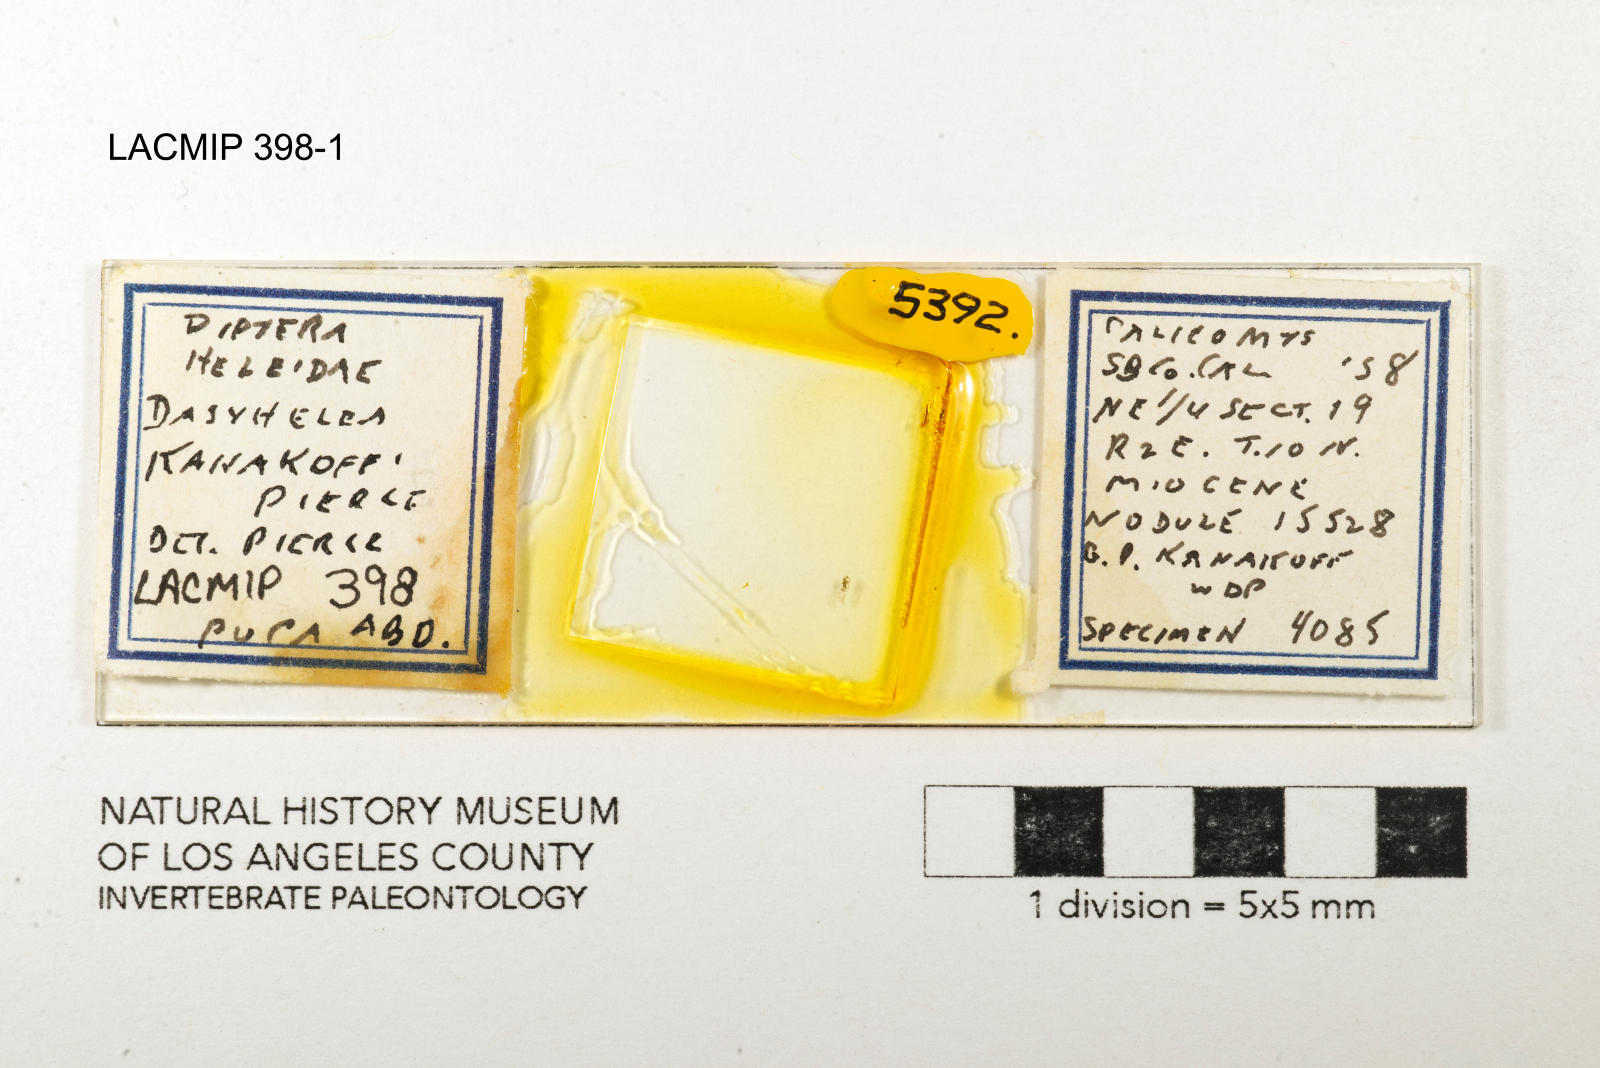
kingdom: Animalia
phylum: Arthropoda
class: Insecta
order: Diptera
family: Ceratopogonidae
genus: Dasyhelea
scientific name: Dasyhelea kanakoffi
